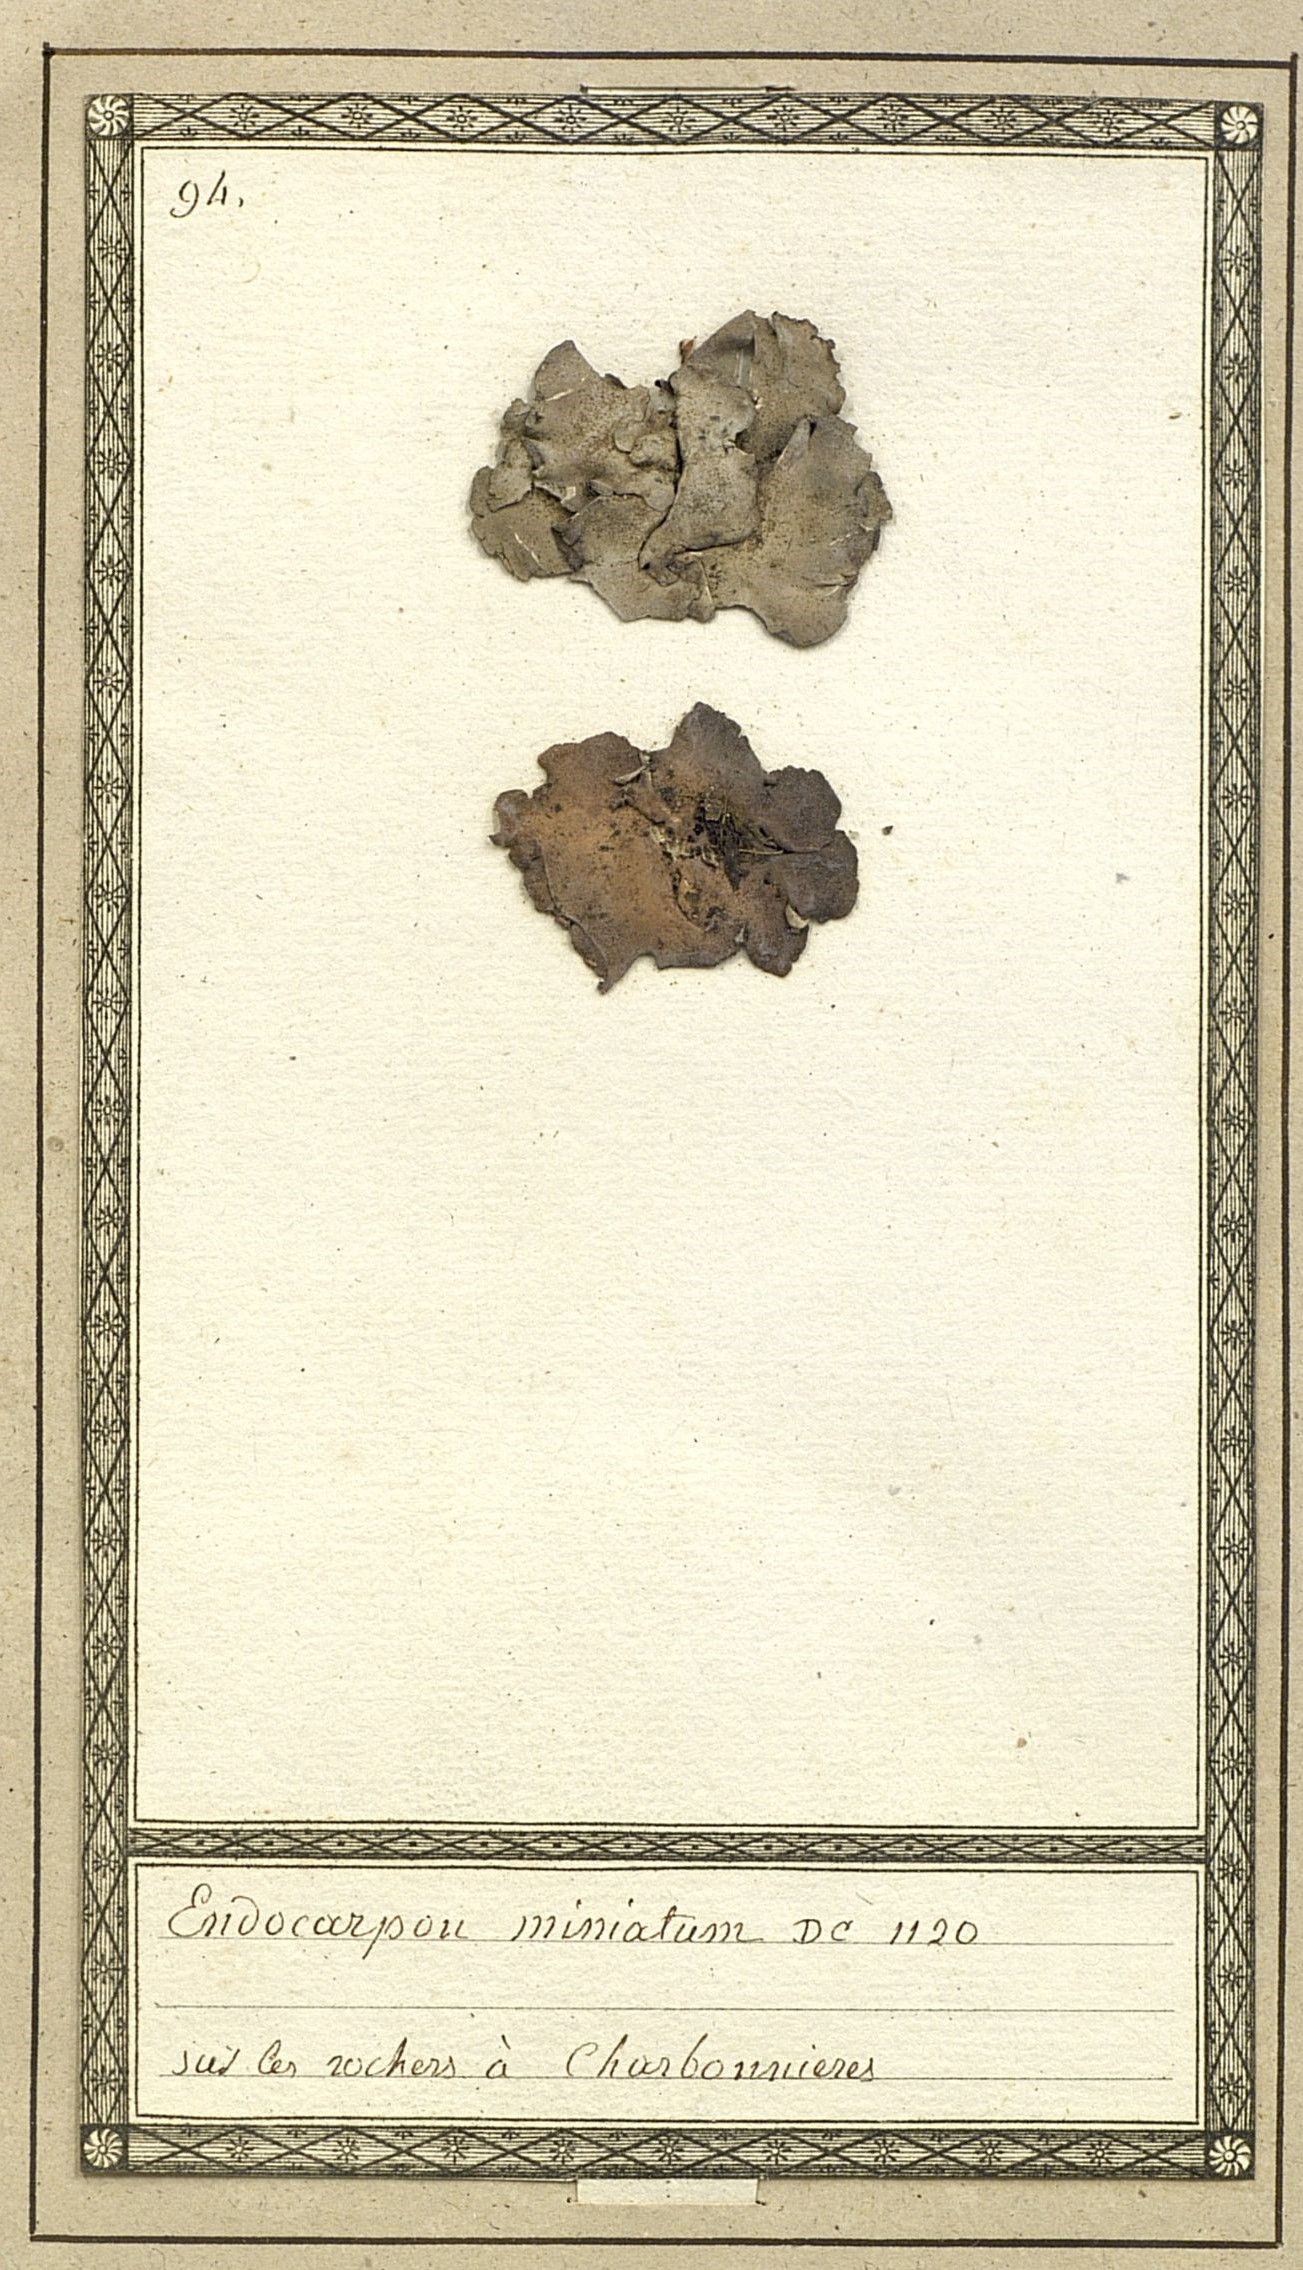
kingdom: Fungi
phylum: Ascomycota
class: Eurotiomycetes
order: Verrucariales
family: Verrucariaceae
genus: Dermatocarpon
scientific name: Dermatocarpon miniatum
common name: Leather lichen
